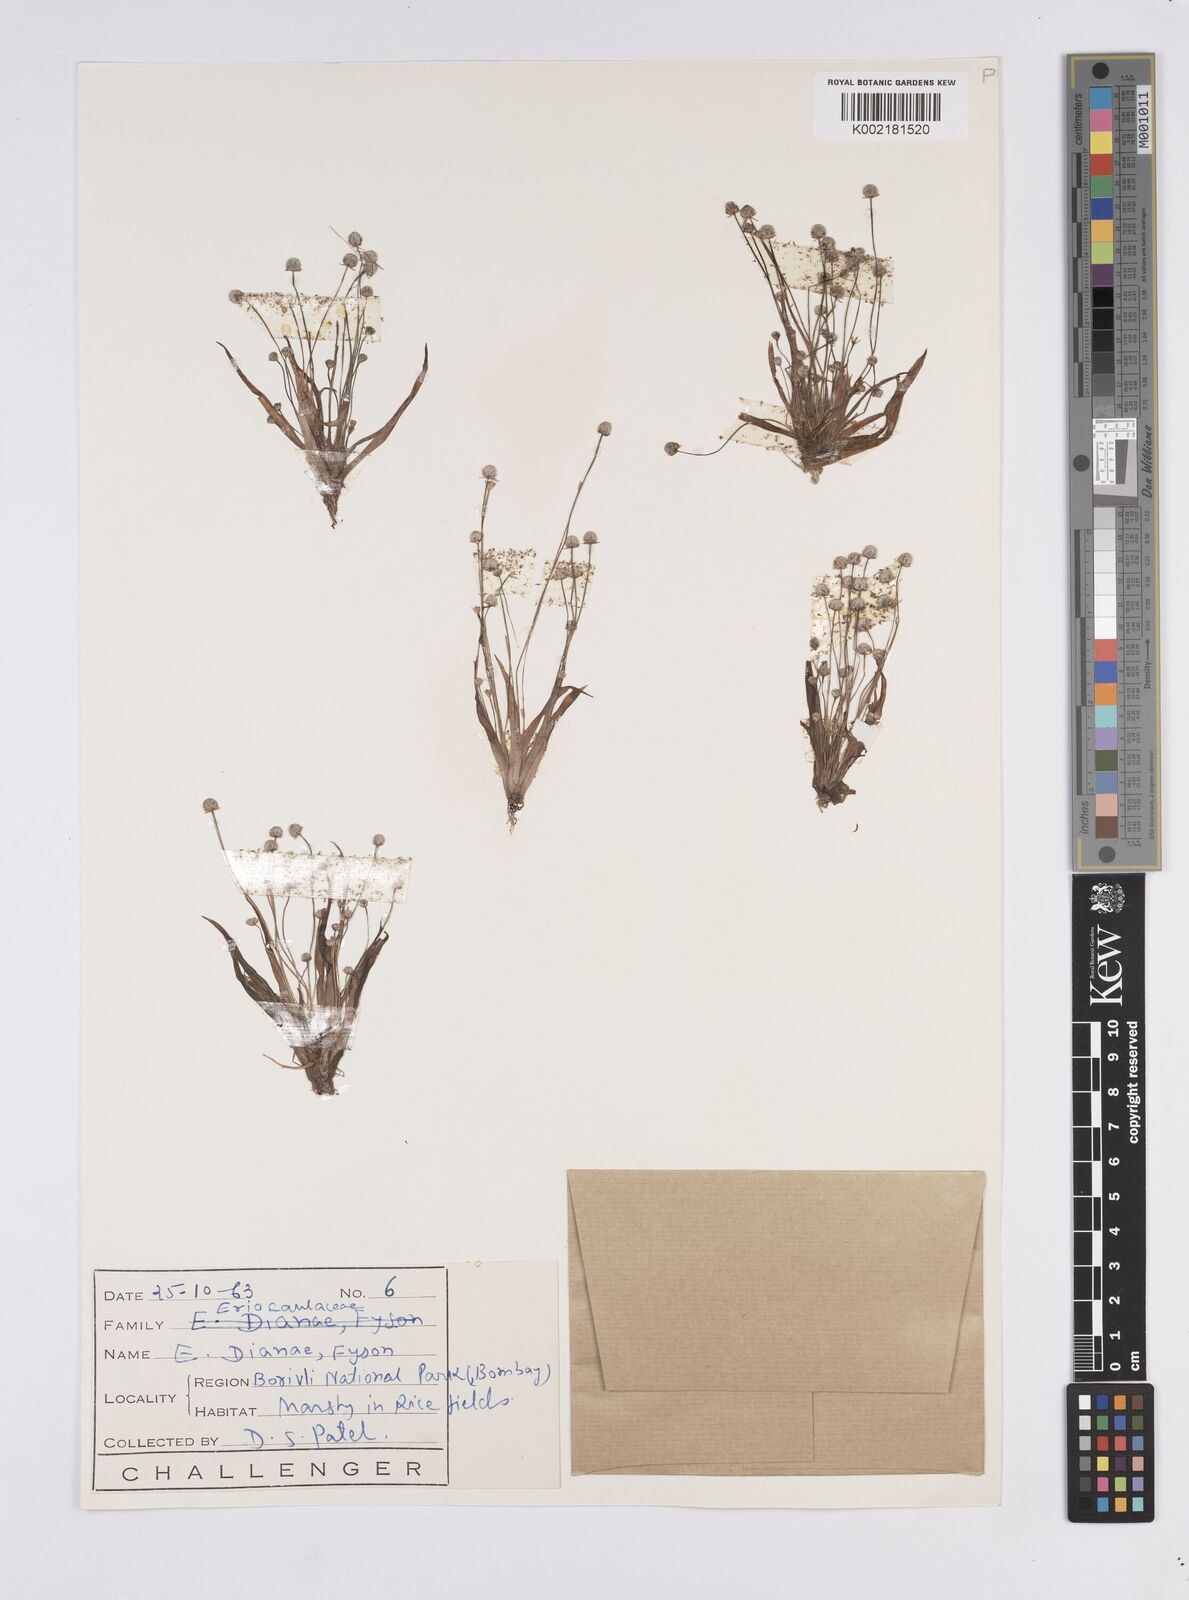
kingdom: Plantae
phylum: Tracheophyta
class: Liliopsida
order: Poales
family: Eriocaulaceae
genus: Eriocaulon
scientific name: Eriocaulon heterolepis
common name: Buttonhead pipewort
